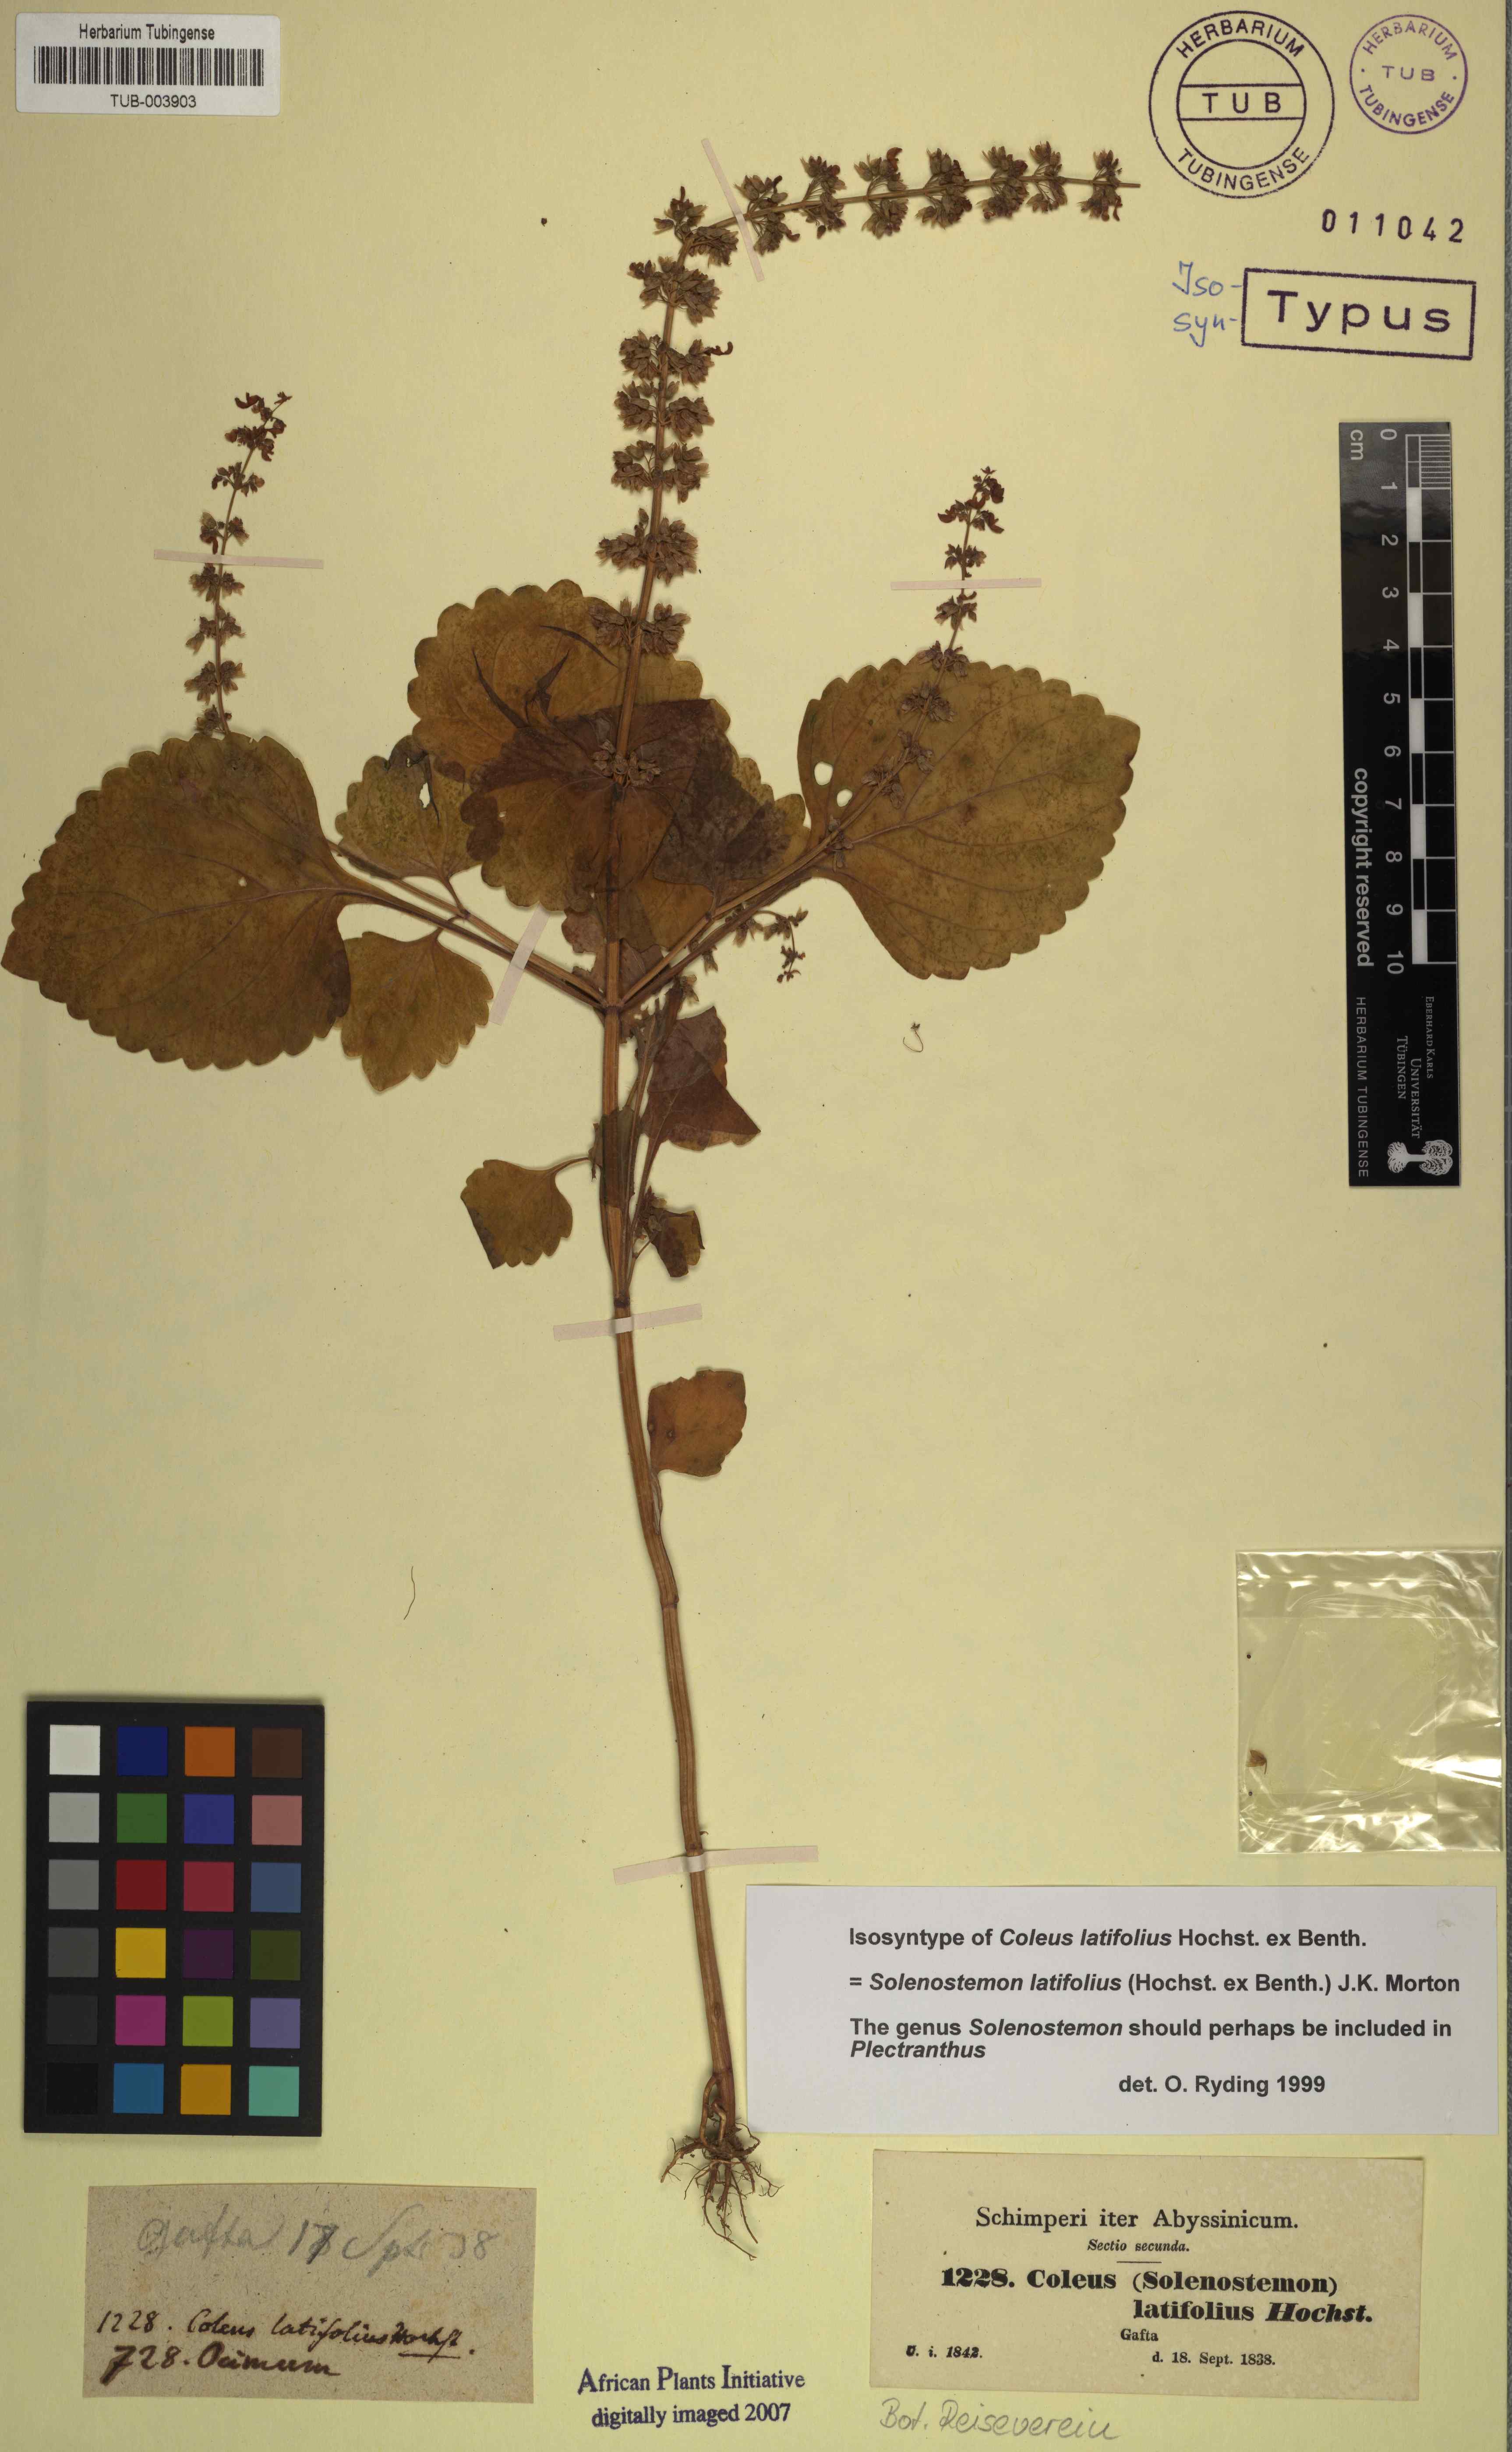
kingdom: Plantae
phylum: Tracheophyta
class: Magnoliopsida
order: Lamiales
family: Lamiaceae
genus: Coleus
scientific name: Coleus bojeri
